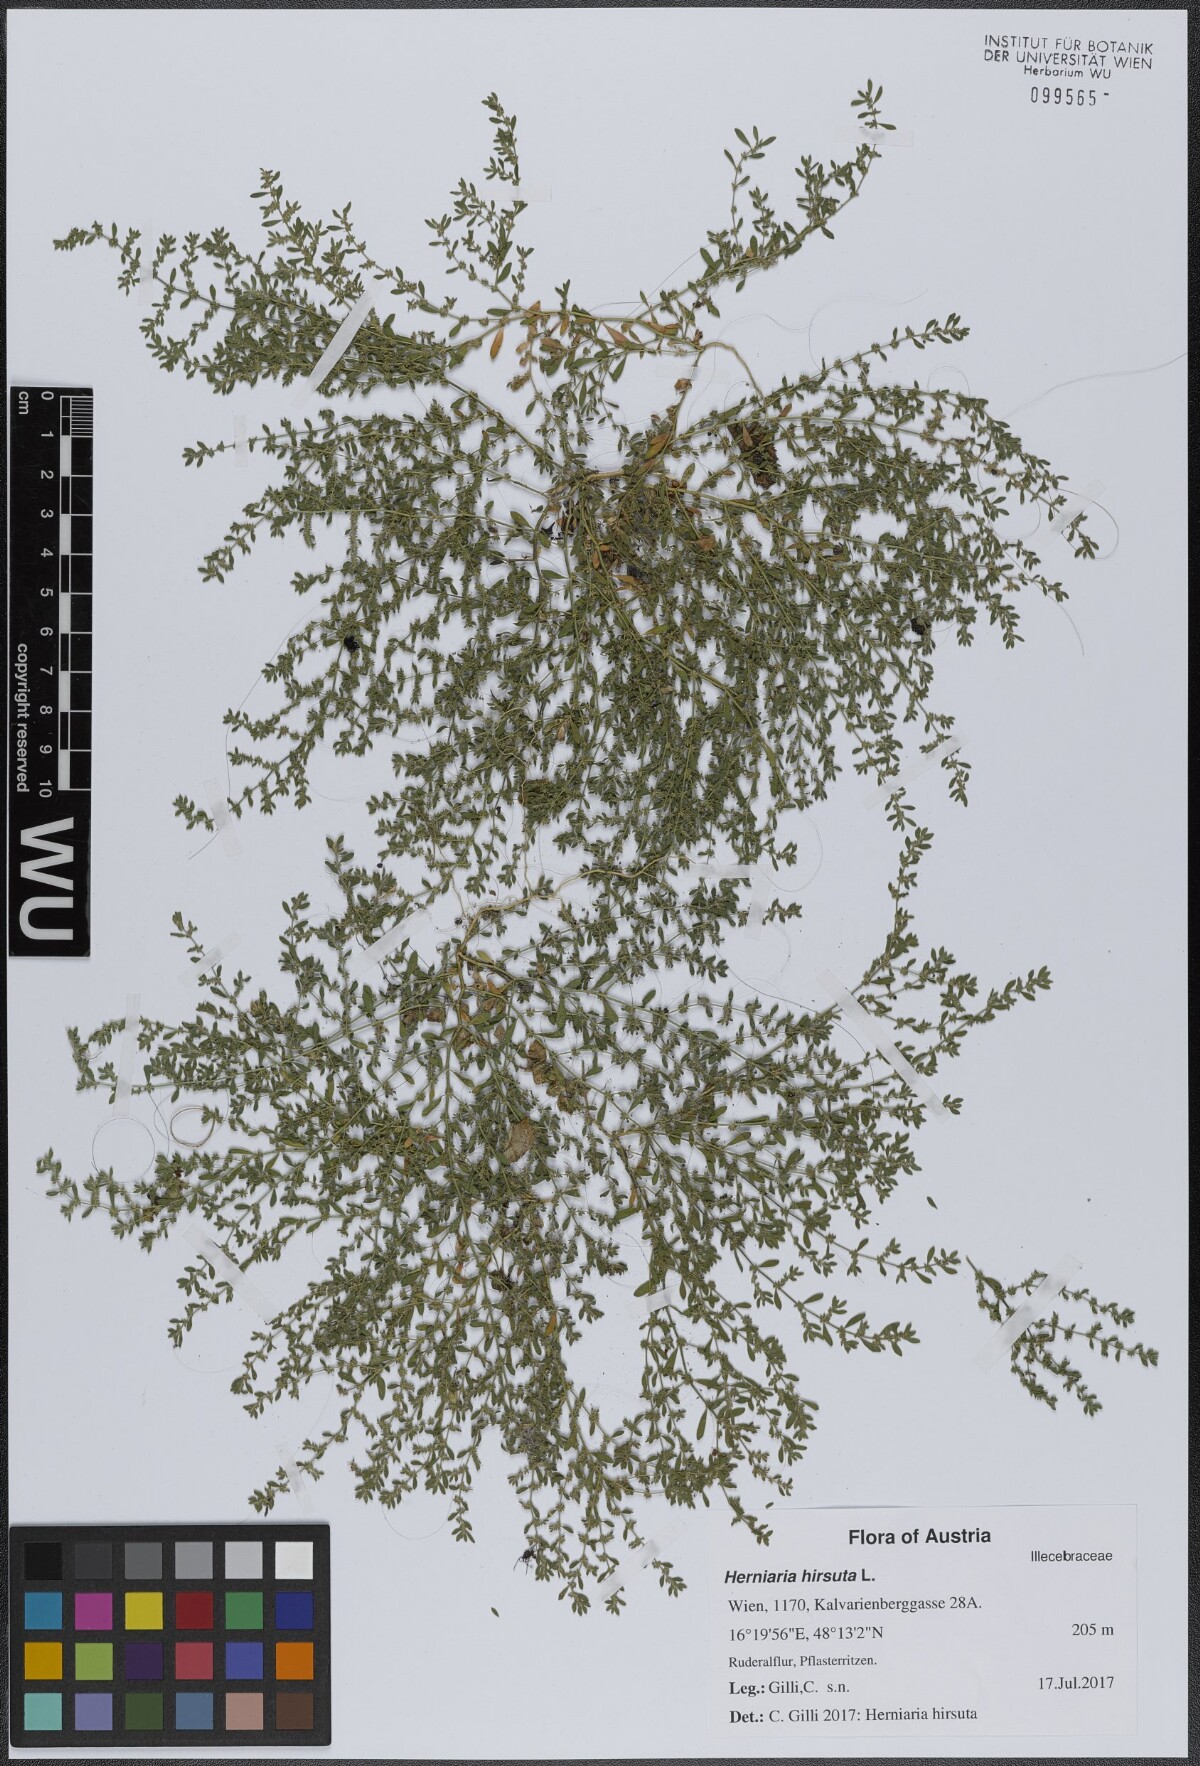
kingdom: Plantae
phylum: Tracheophyta
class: Magnoliopsida
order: Caryophyllales
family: Caryophyllaceae
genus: Herniaria
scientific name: Herniaria hirsuta
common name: Hairy rupturewort
